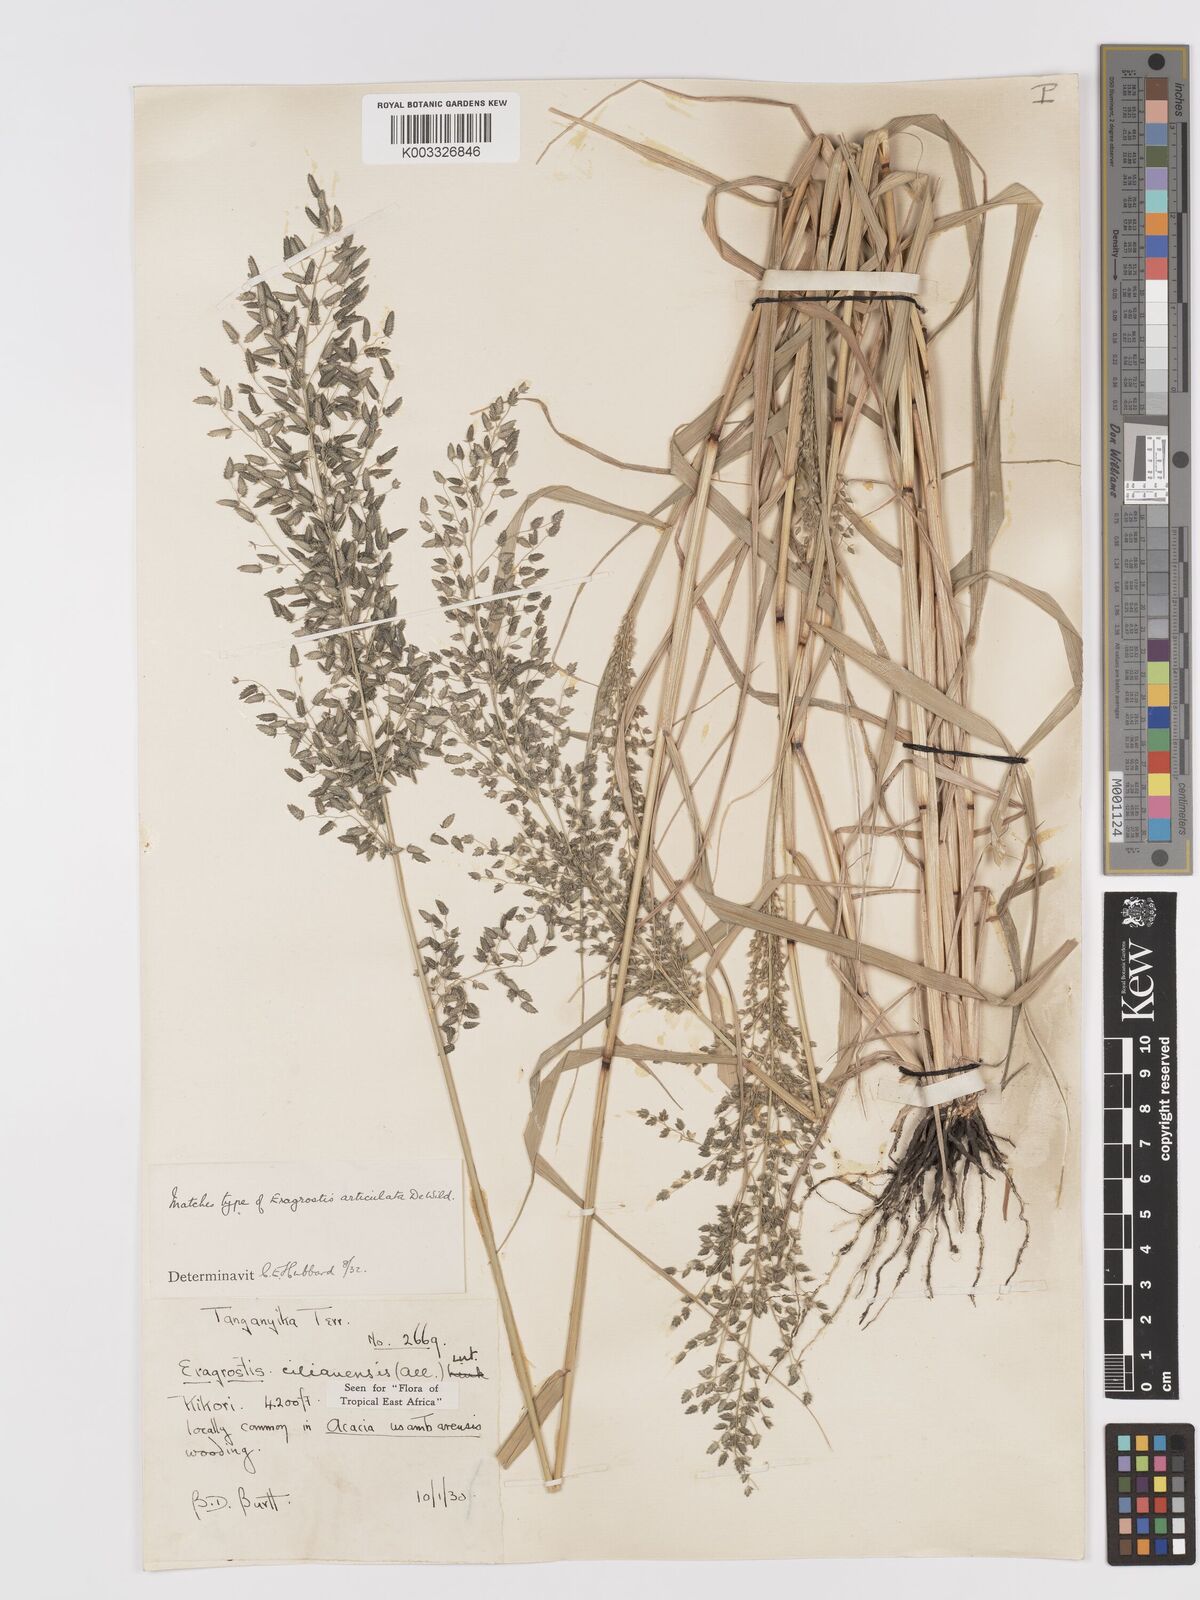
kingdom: Plantae
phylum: Tracheophyta
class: Liliopsida
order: Poales
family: Poaceae
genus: Eragrostis
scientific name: Eragrostis cilianensis
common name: Stinkgrass
